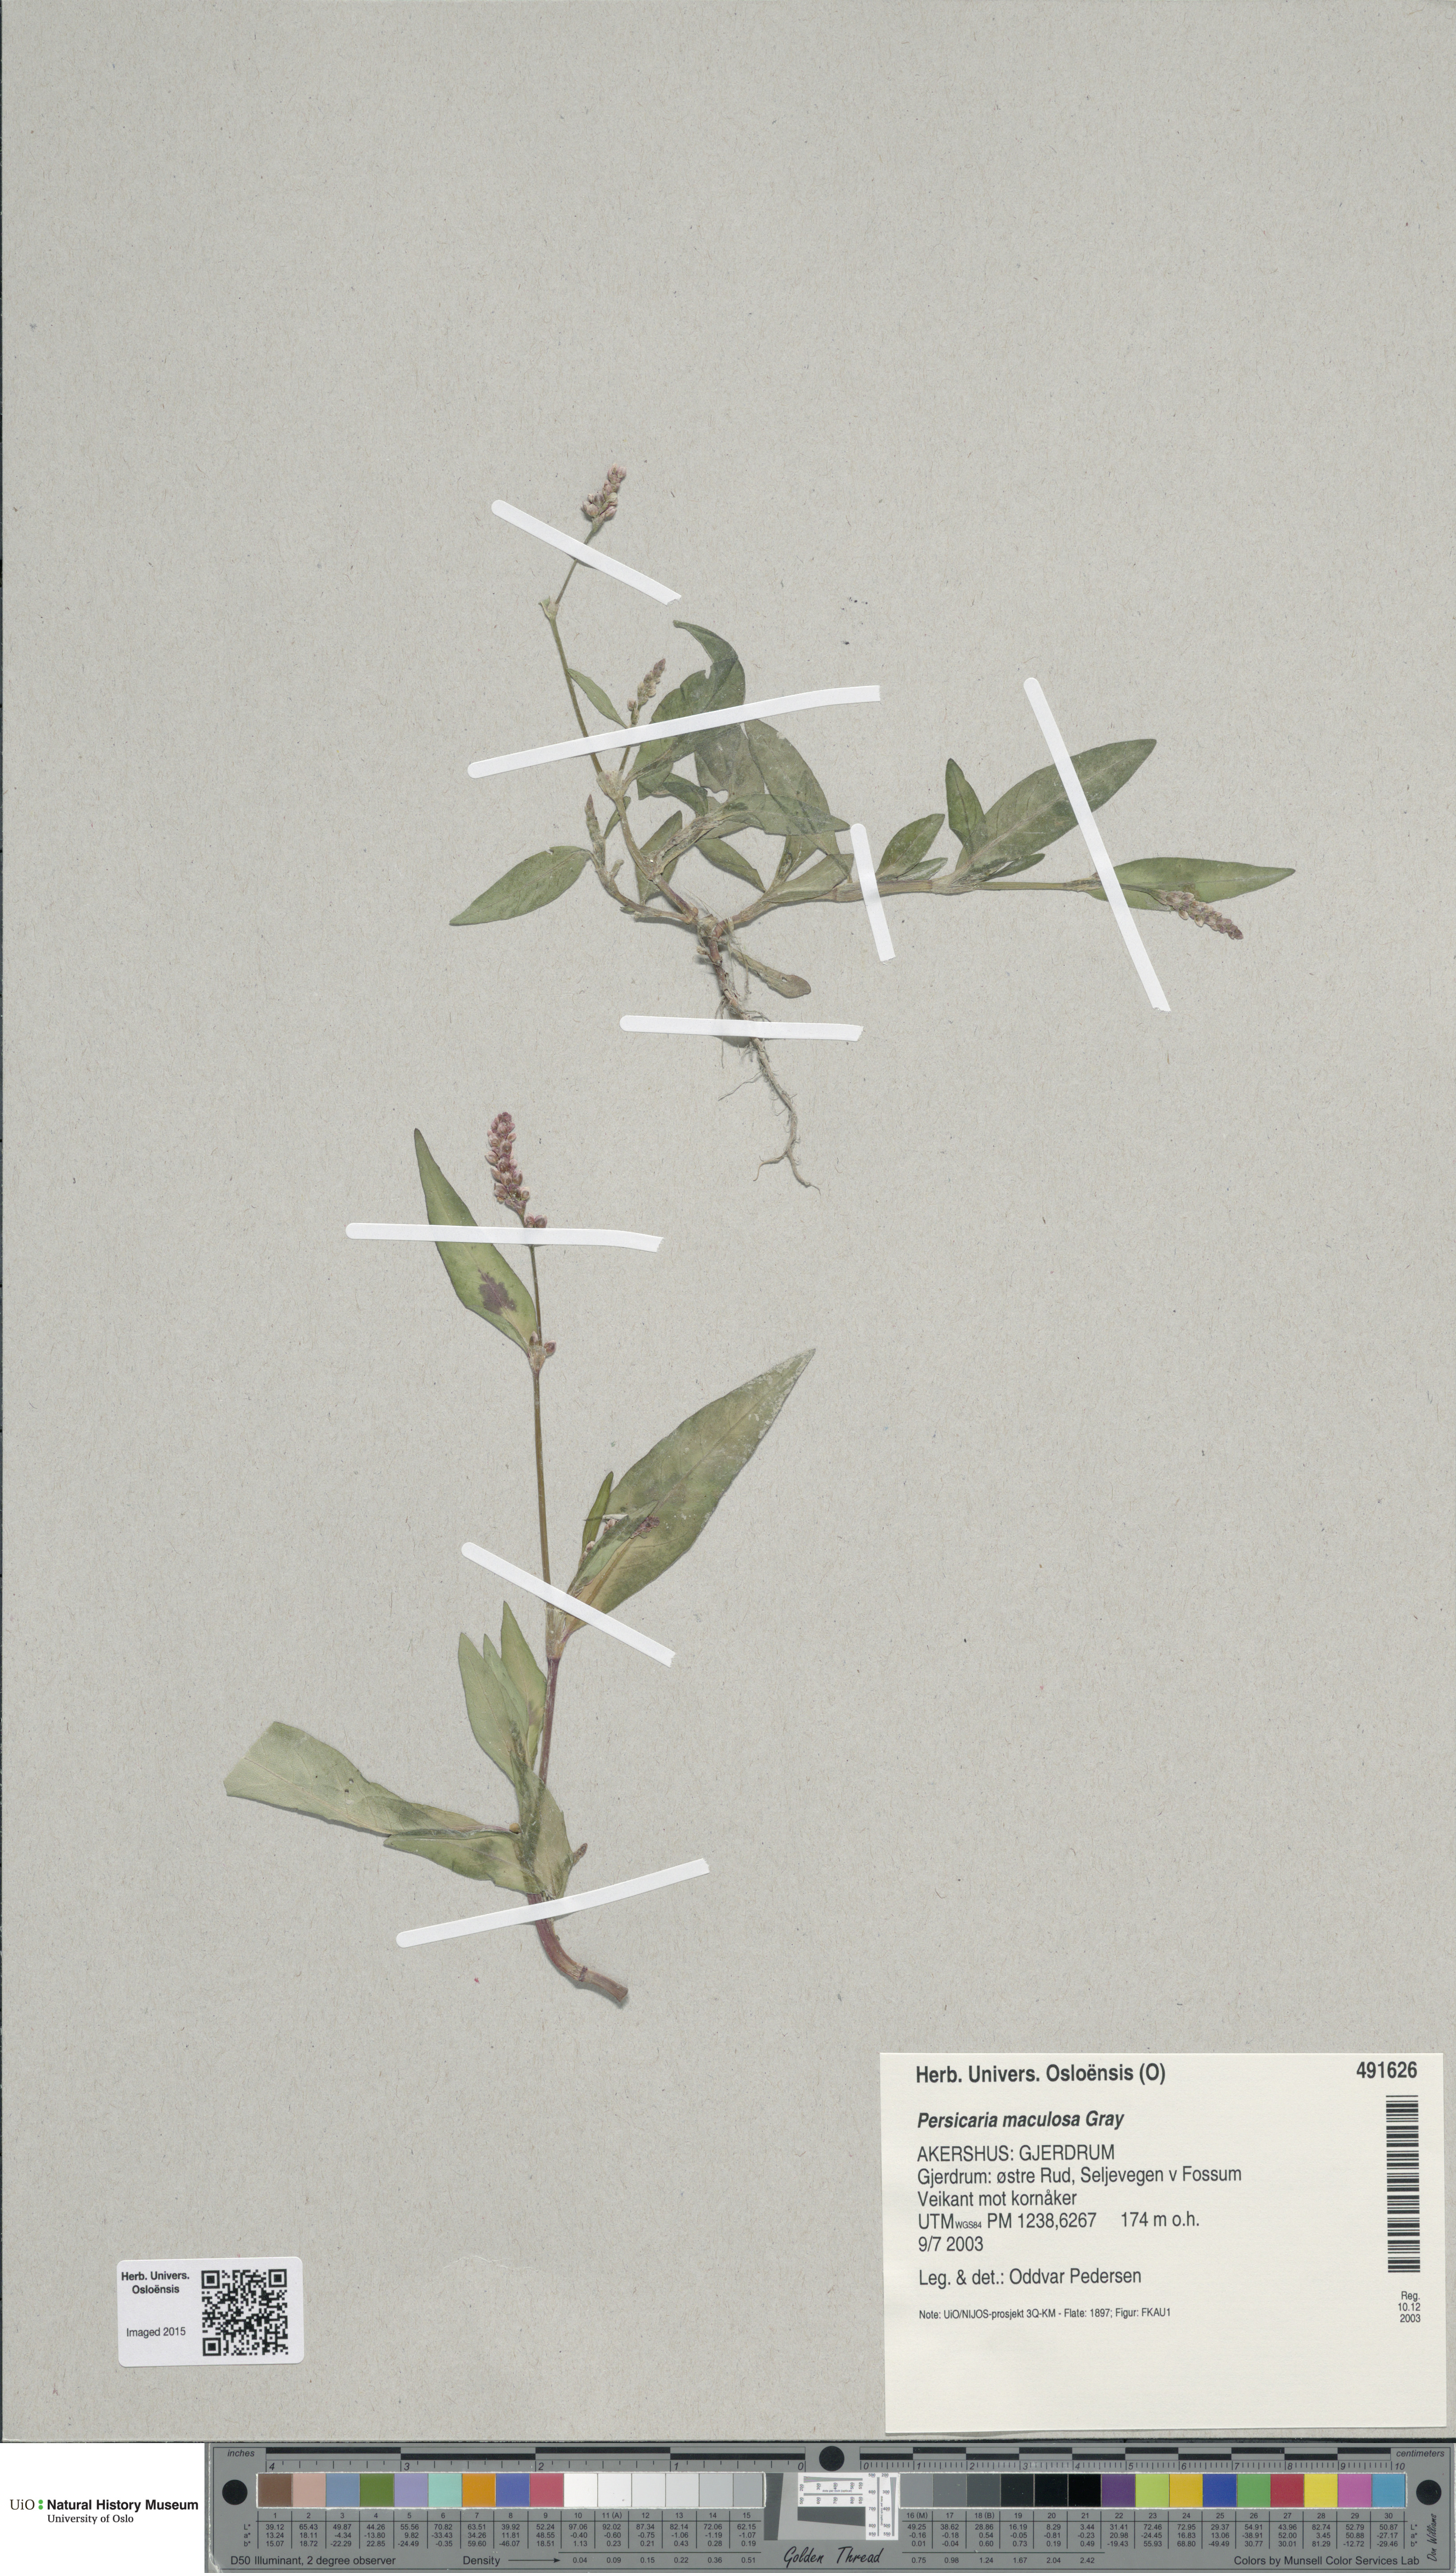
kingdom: Plantae
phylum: Tracheophyta
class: Magnoliopsida
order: Caryophyllales
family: Polygonaceae
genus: Persicaria
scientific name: Persicaria maculosa
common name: Redshank
